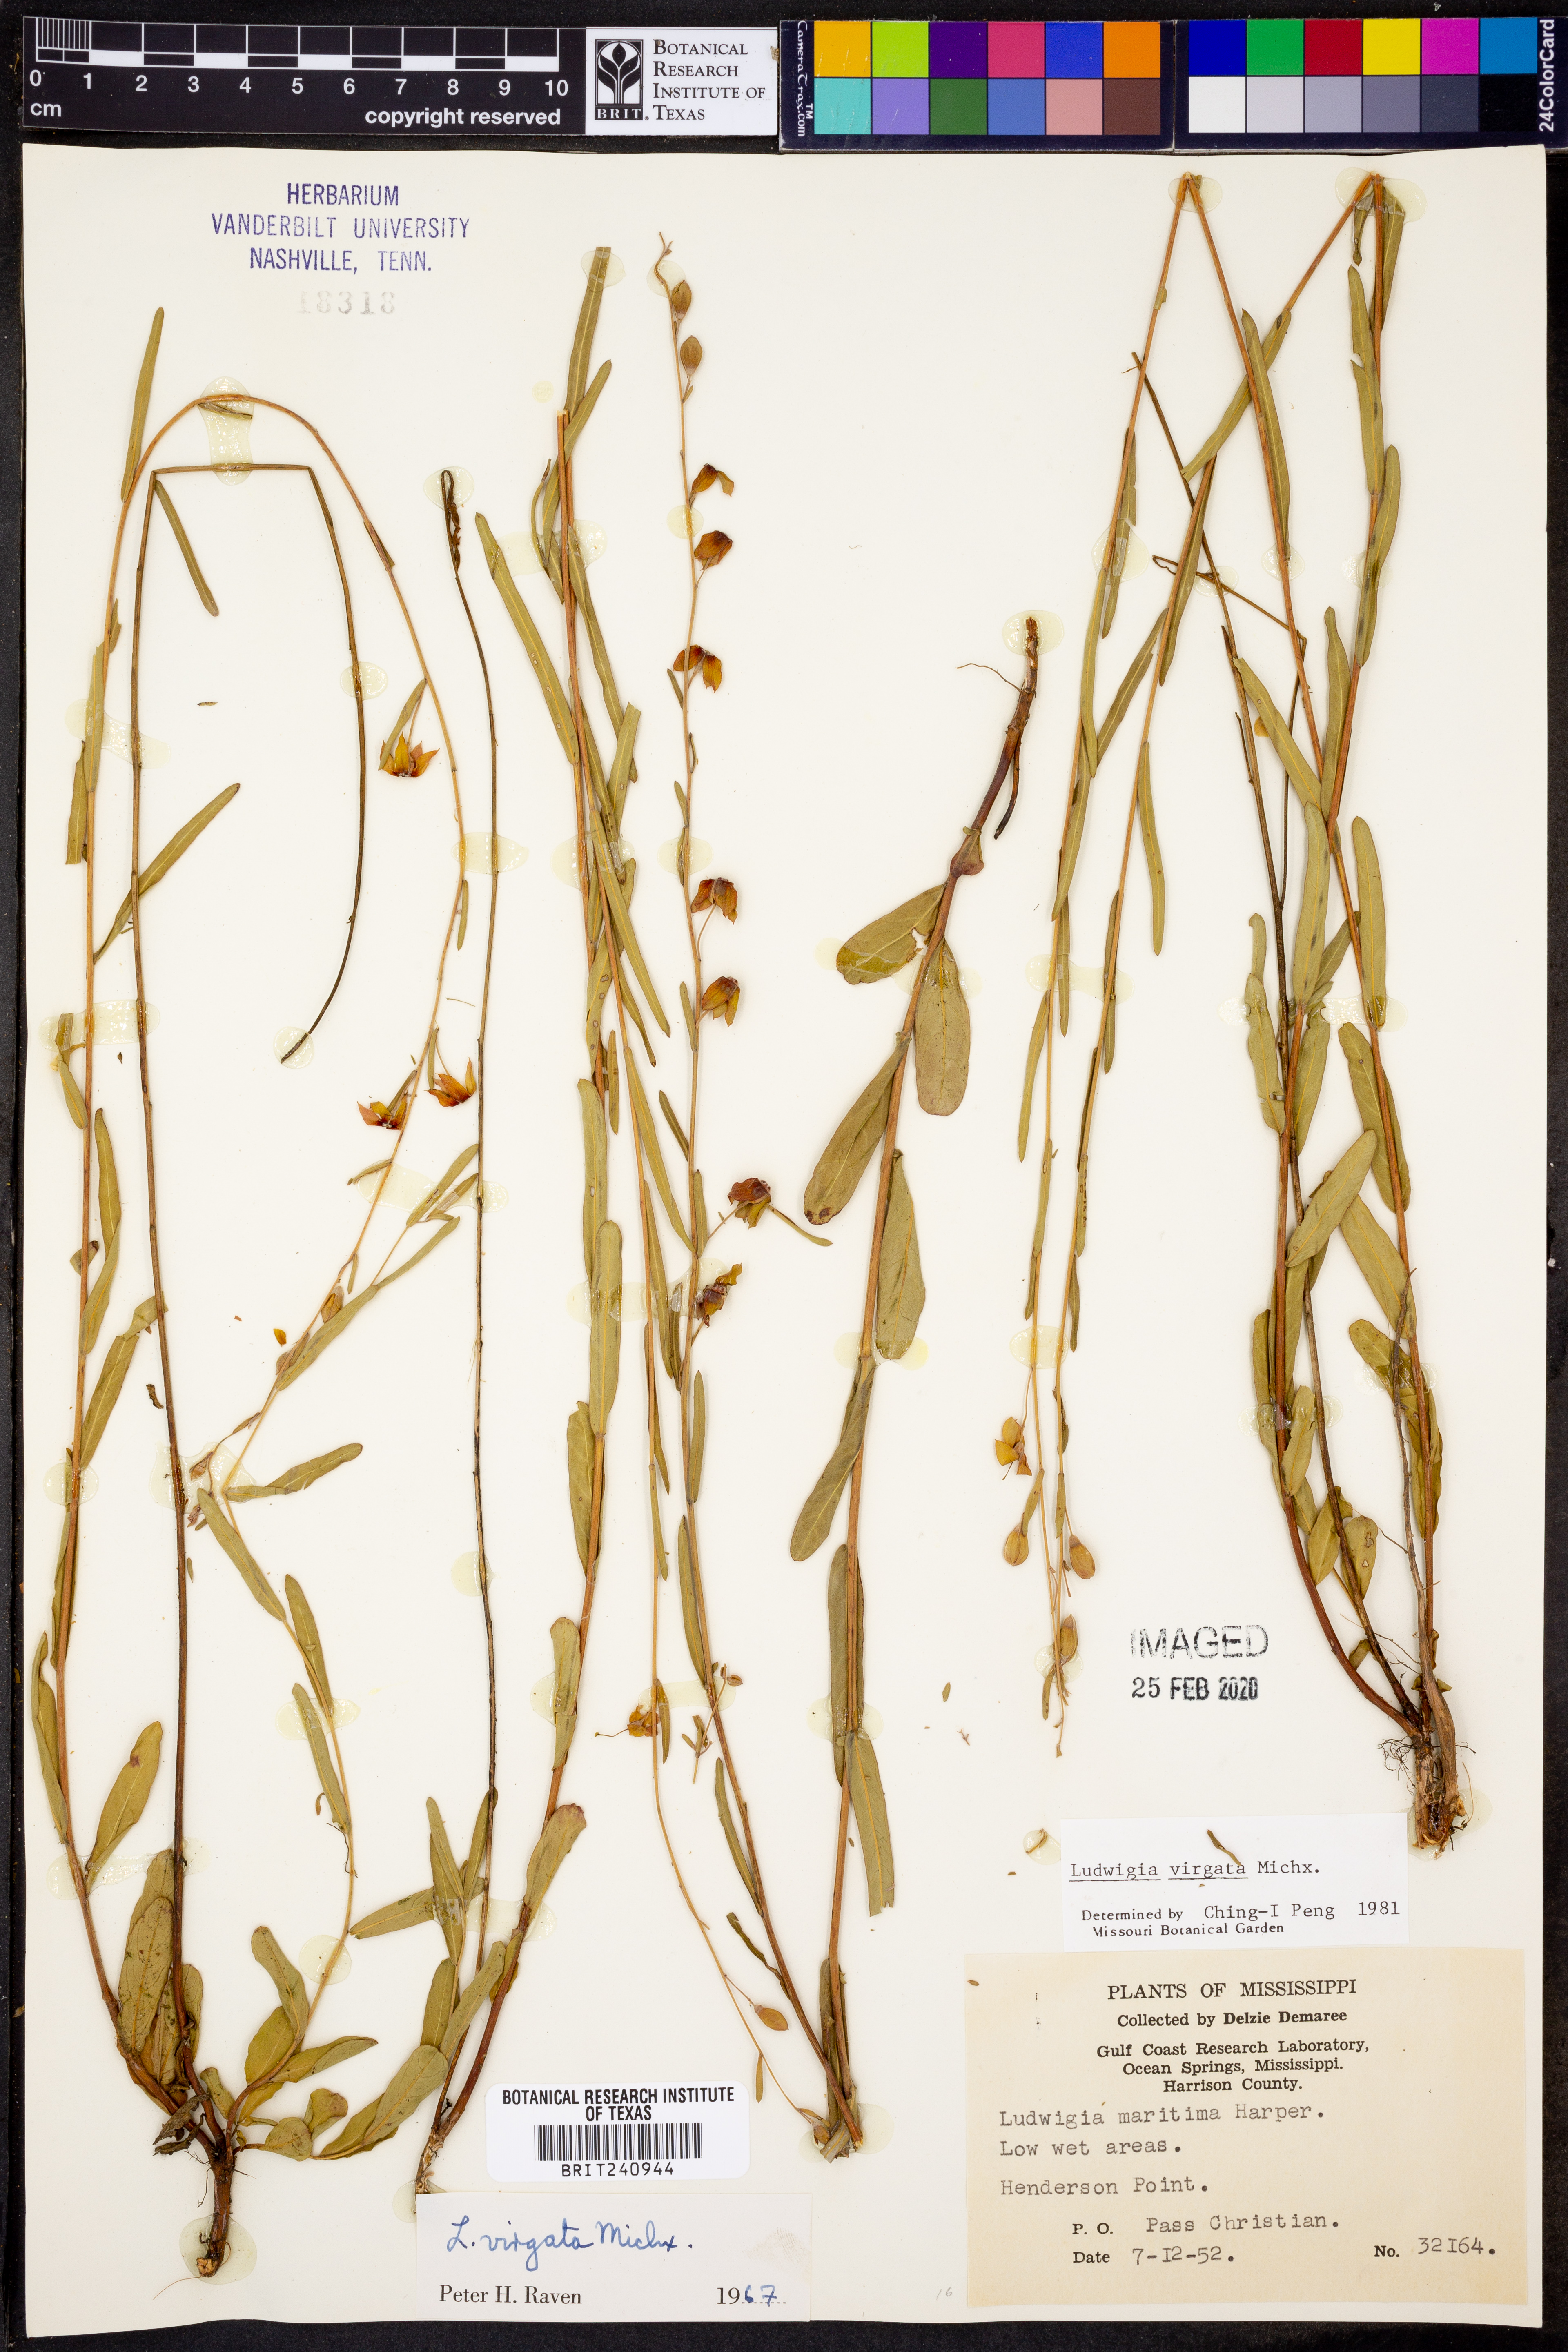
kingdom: Plantae
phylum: Tracheophyta
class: Magnoliopsida
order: Myrtales
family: Onagraceae
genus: Ludwigia
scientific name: Ludwigia virgata
